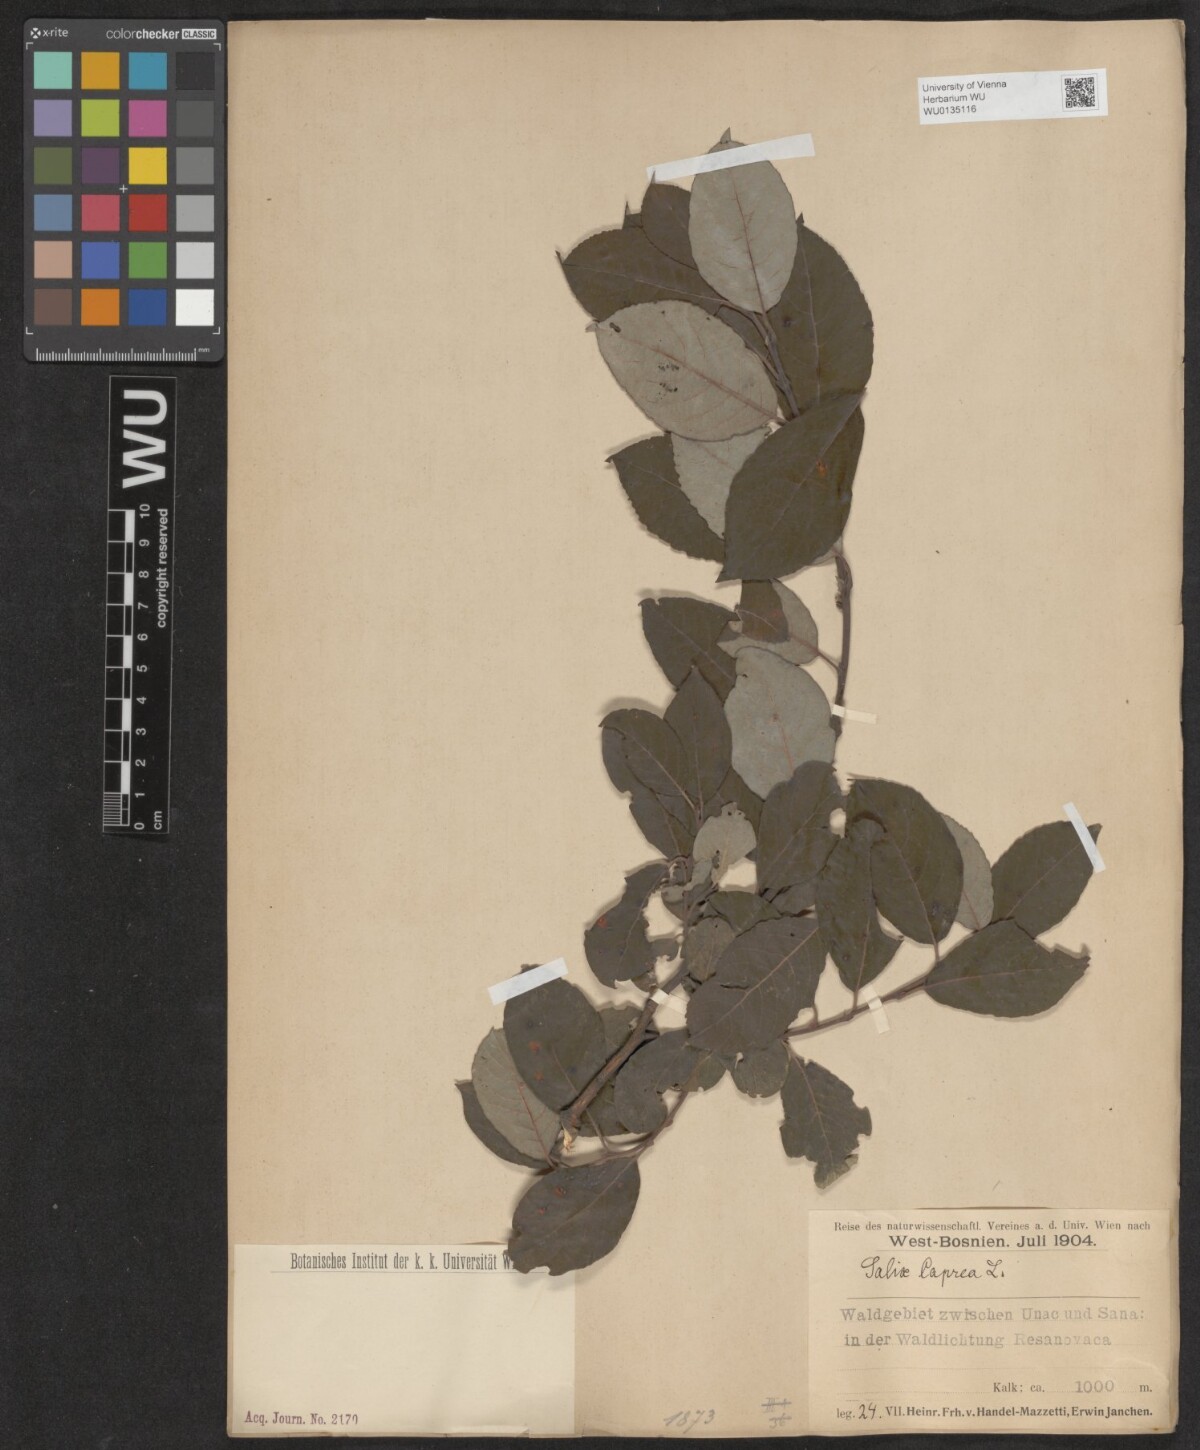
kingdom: Plantae
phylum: Tracheophyta
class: Magnoliopsida
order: Malpighiales
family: Salicaceae
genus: Salix
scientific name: Salix caprea
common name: Goat willow
